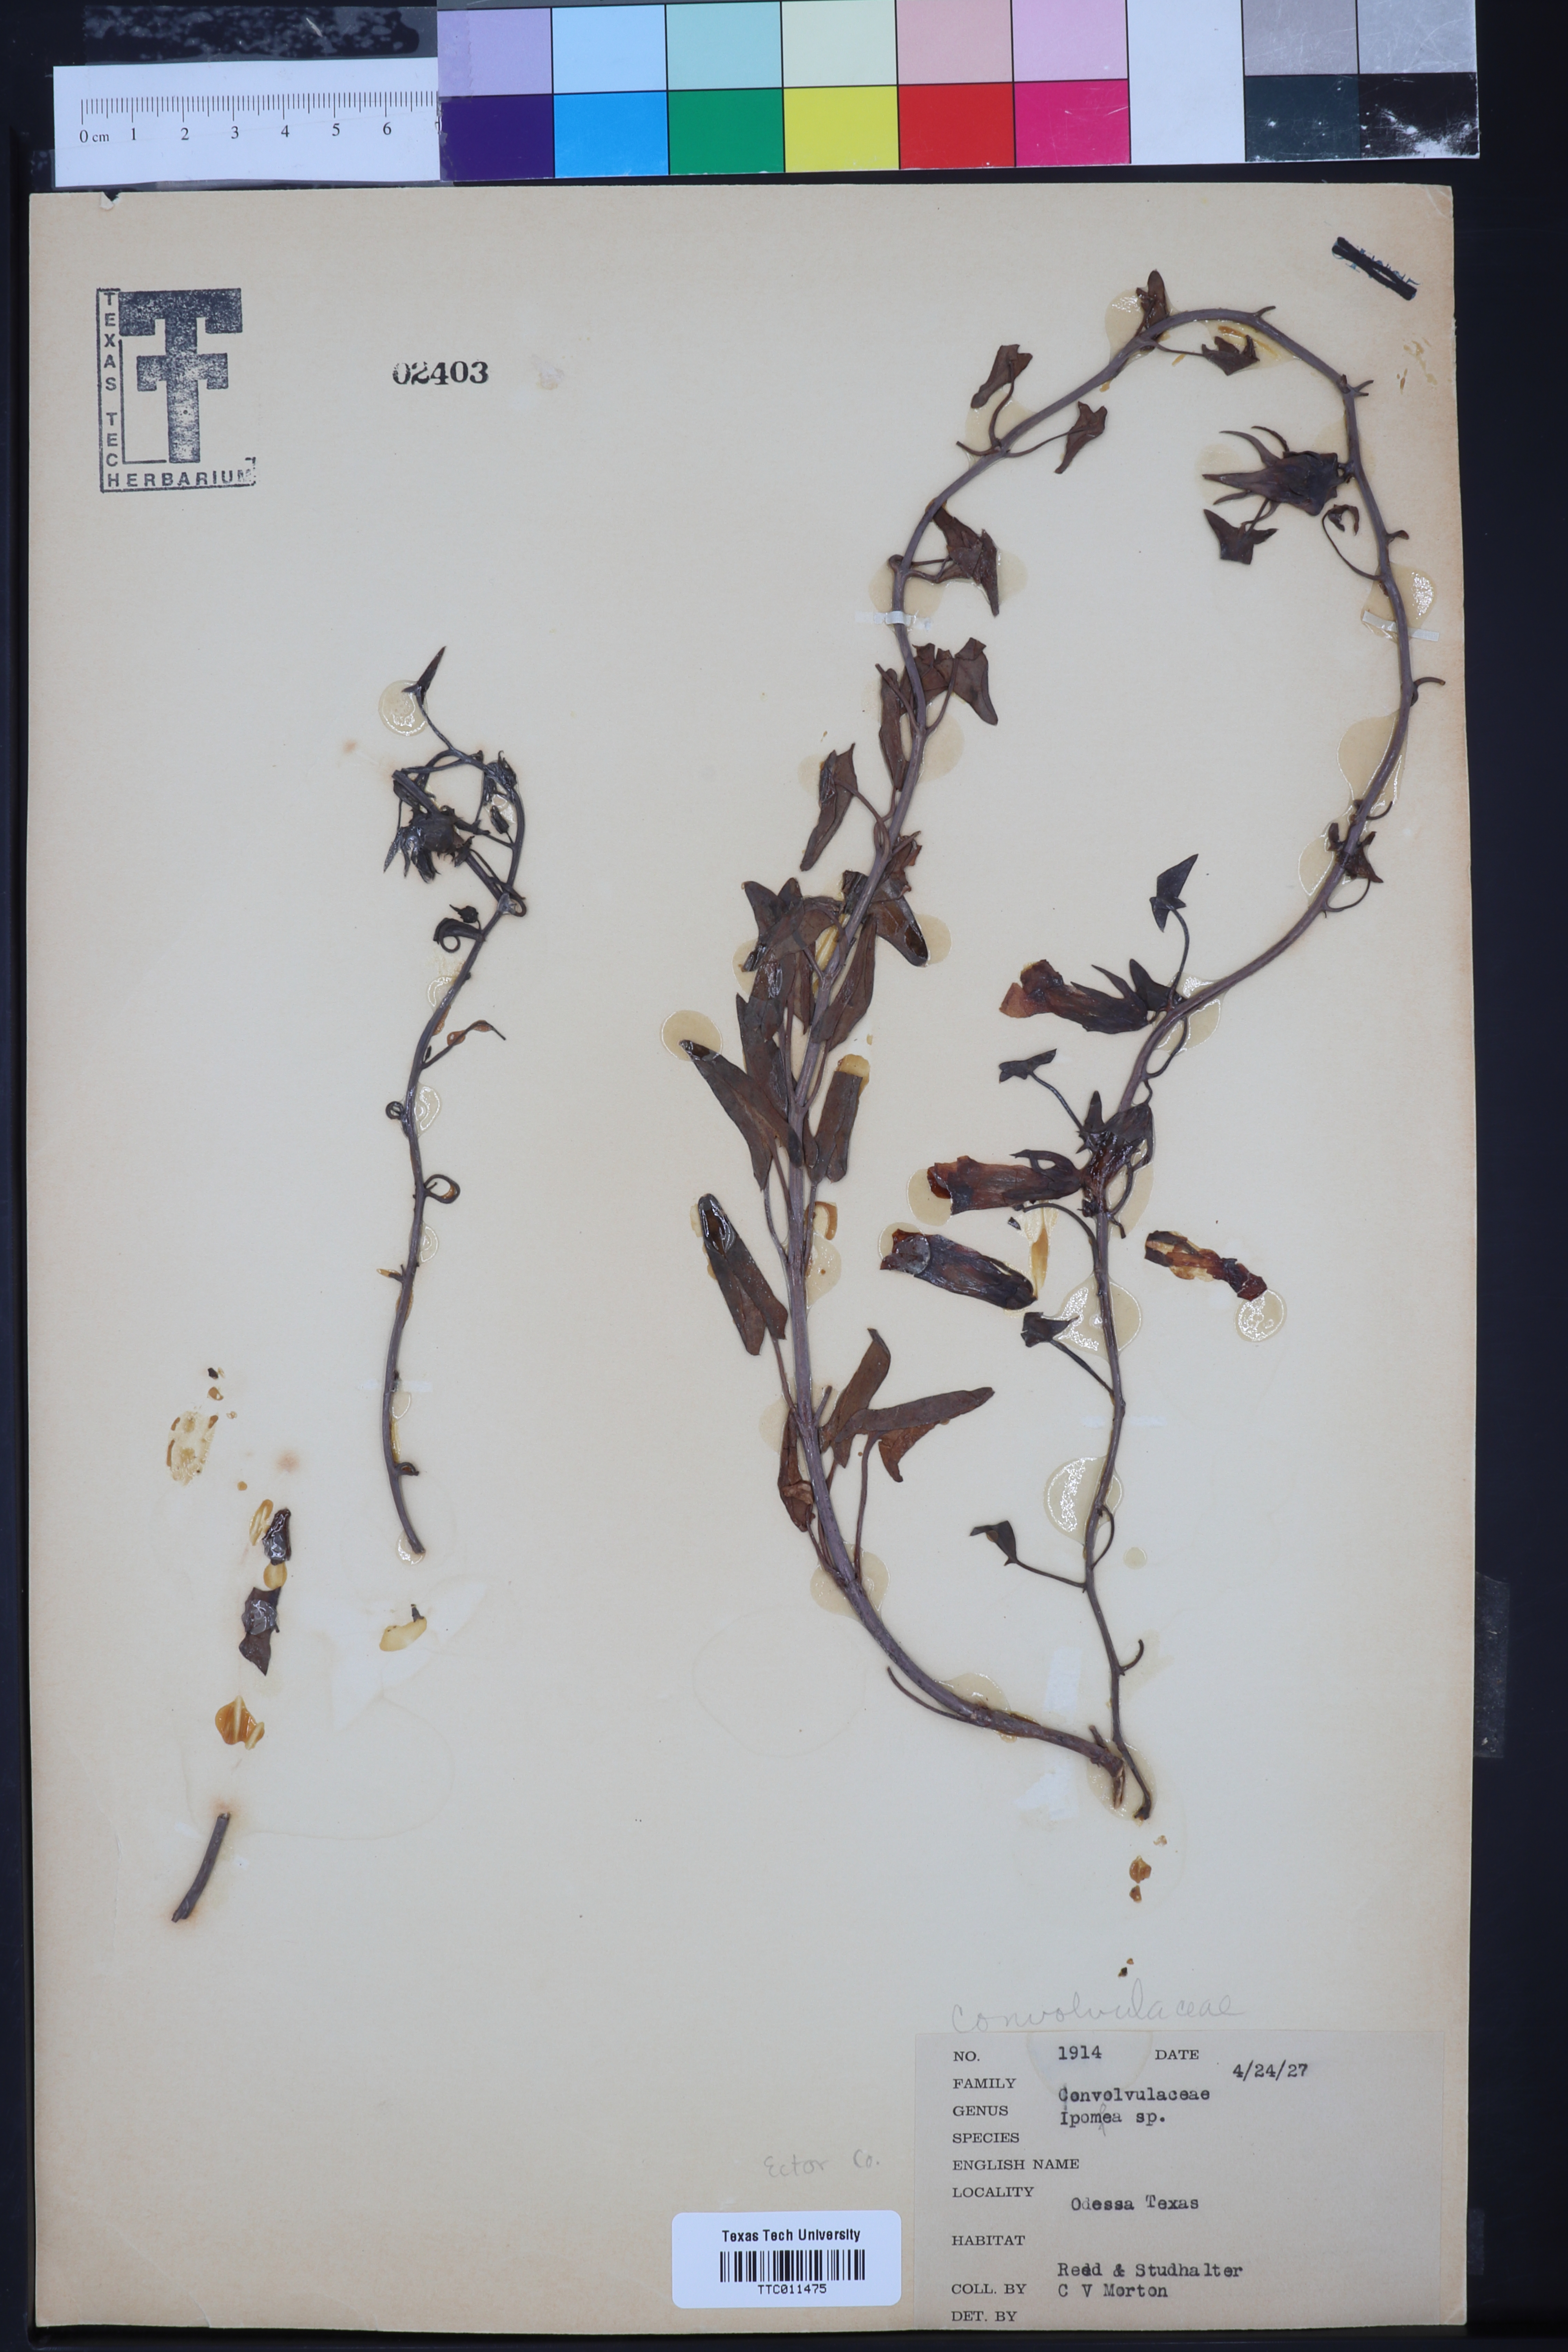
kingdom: Plantae
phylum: Tracheophyta
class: Magnoliopsida
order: Solanales
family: Convolvulaceae
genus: Ipomoea
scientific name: Ipomoea
